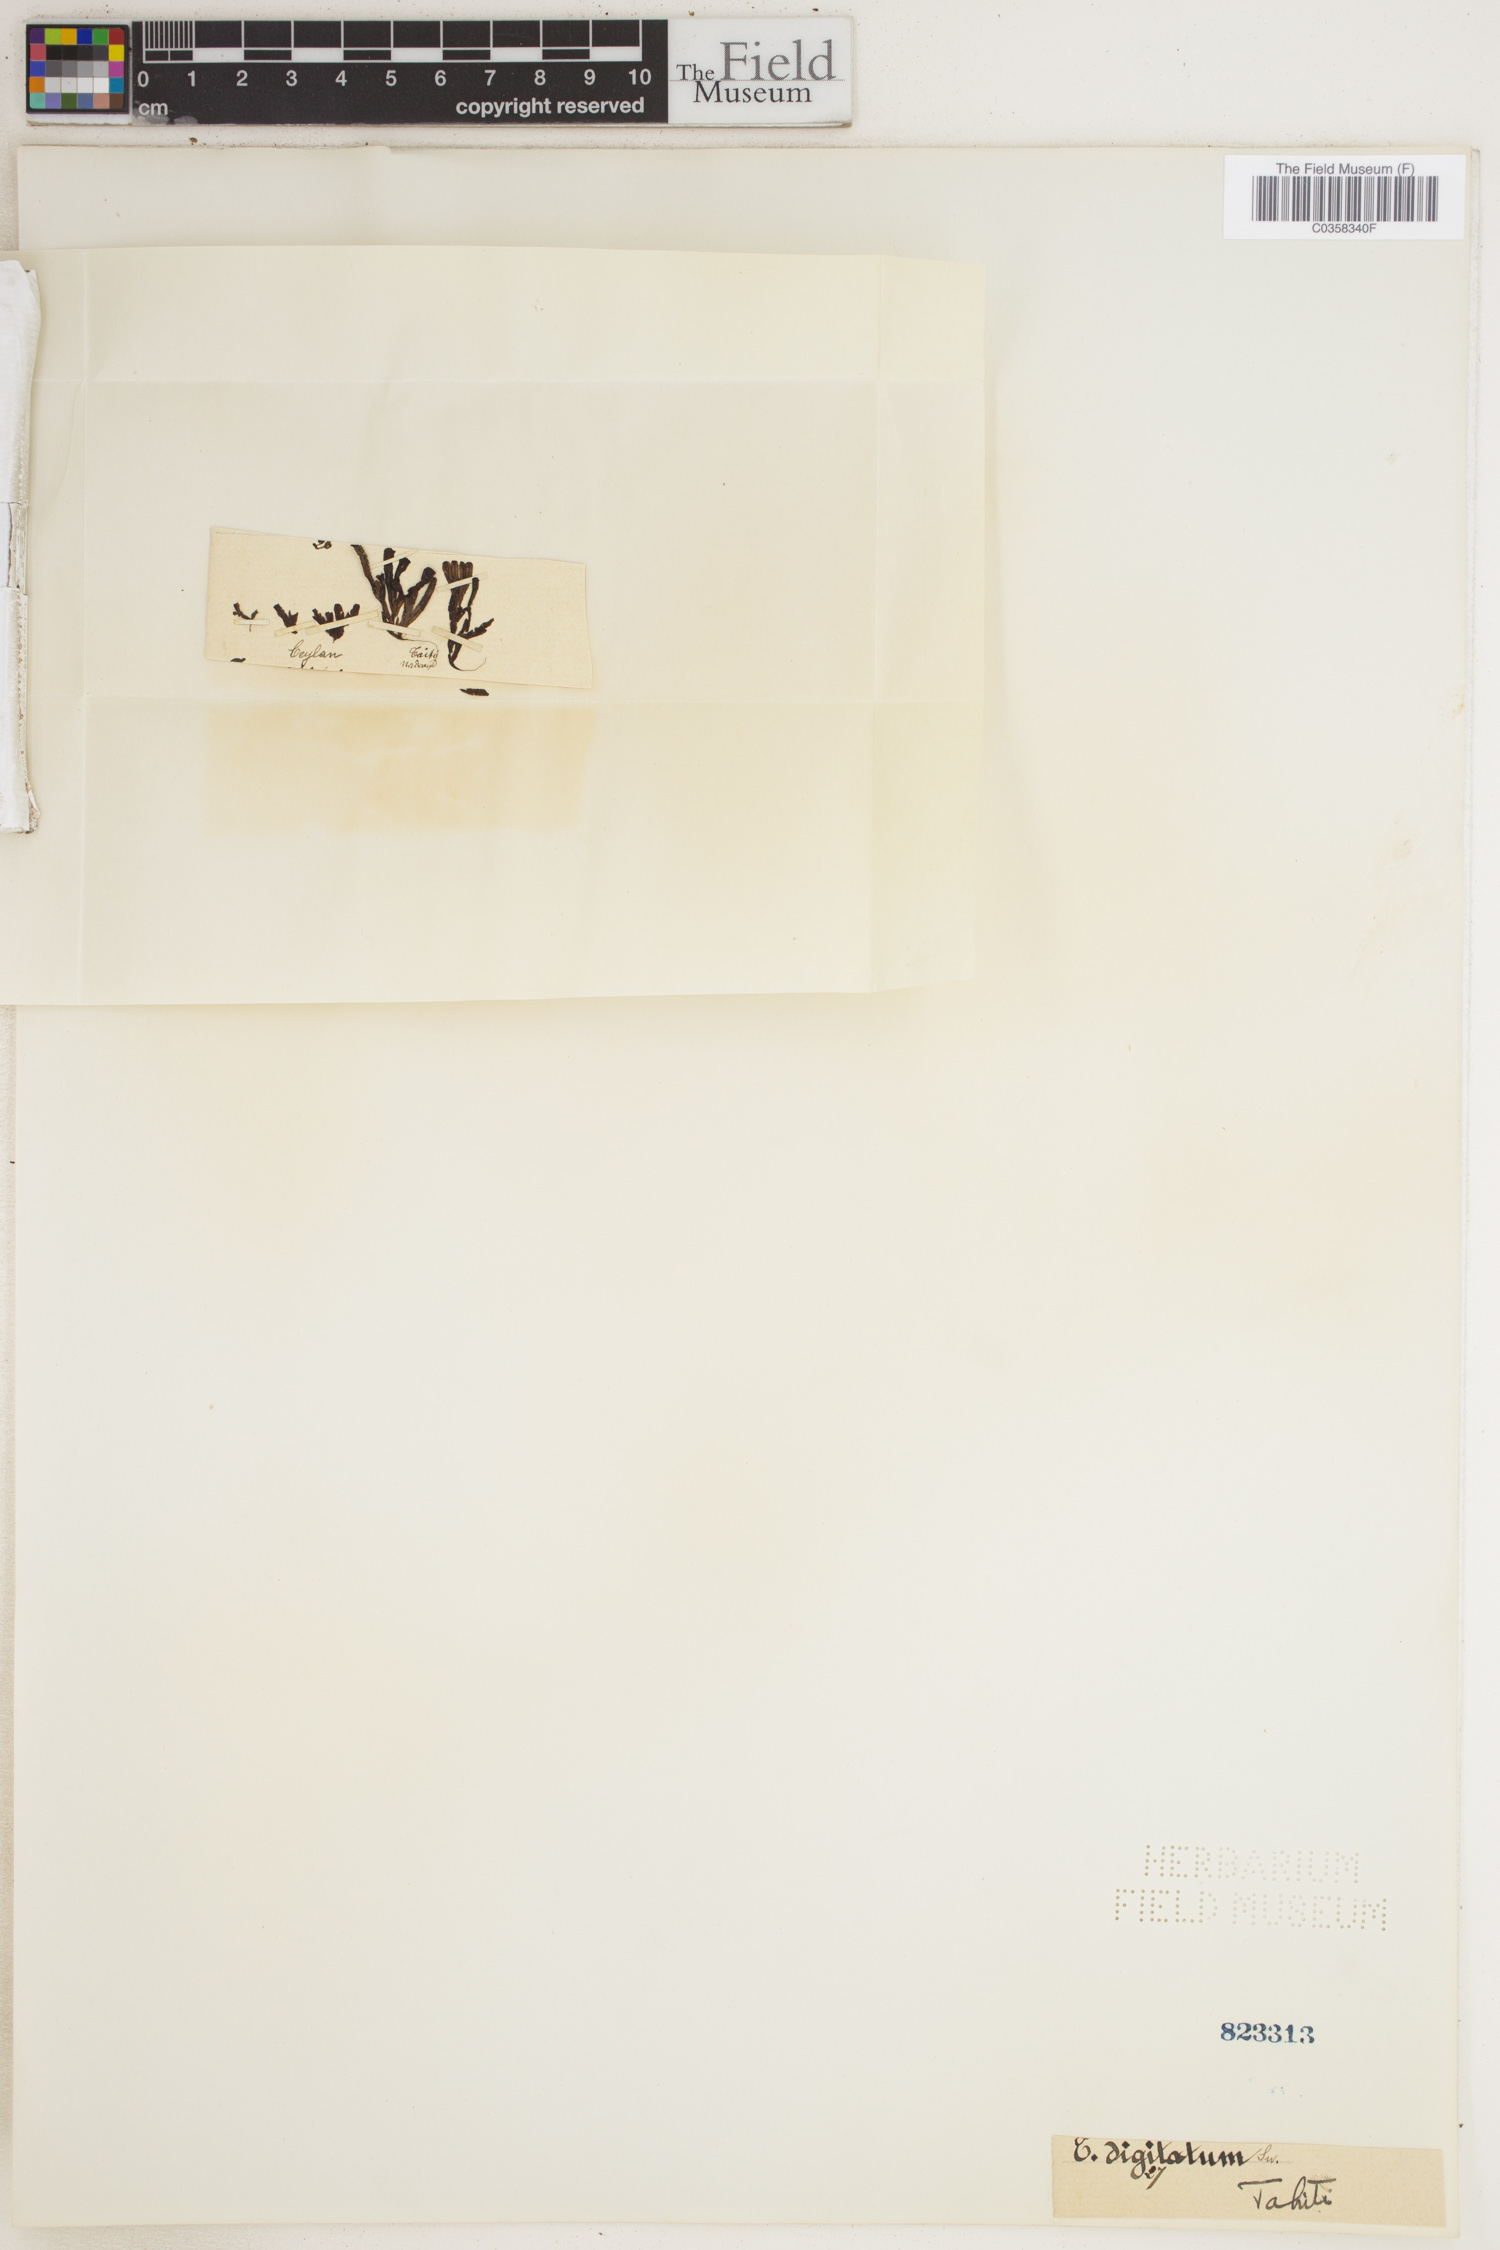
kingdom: Plantae
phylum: Tracheophyta
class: Polypodiopsida
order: Hymenophyllales
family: Hymenophyllaceae
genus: Hymenophyllum
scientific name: Hymenophyllum digitatum
